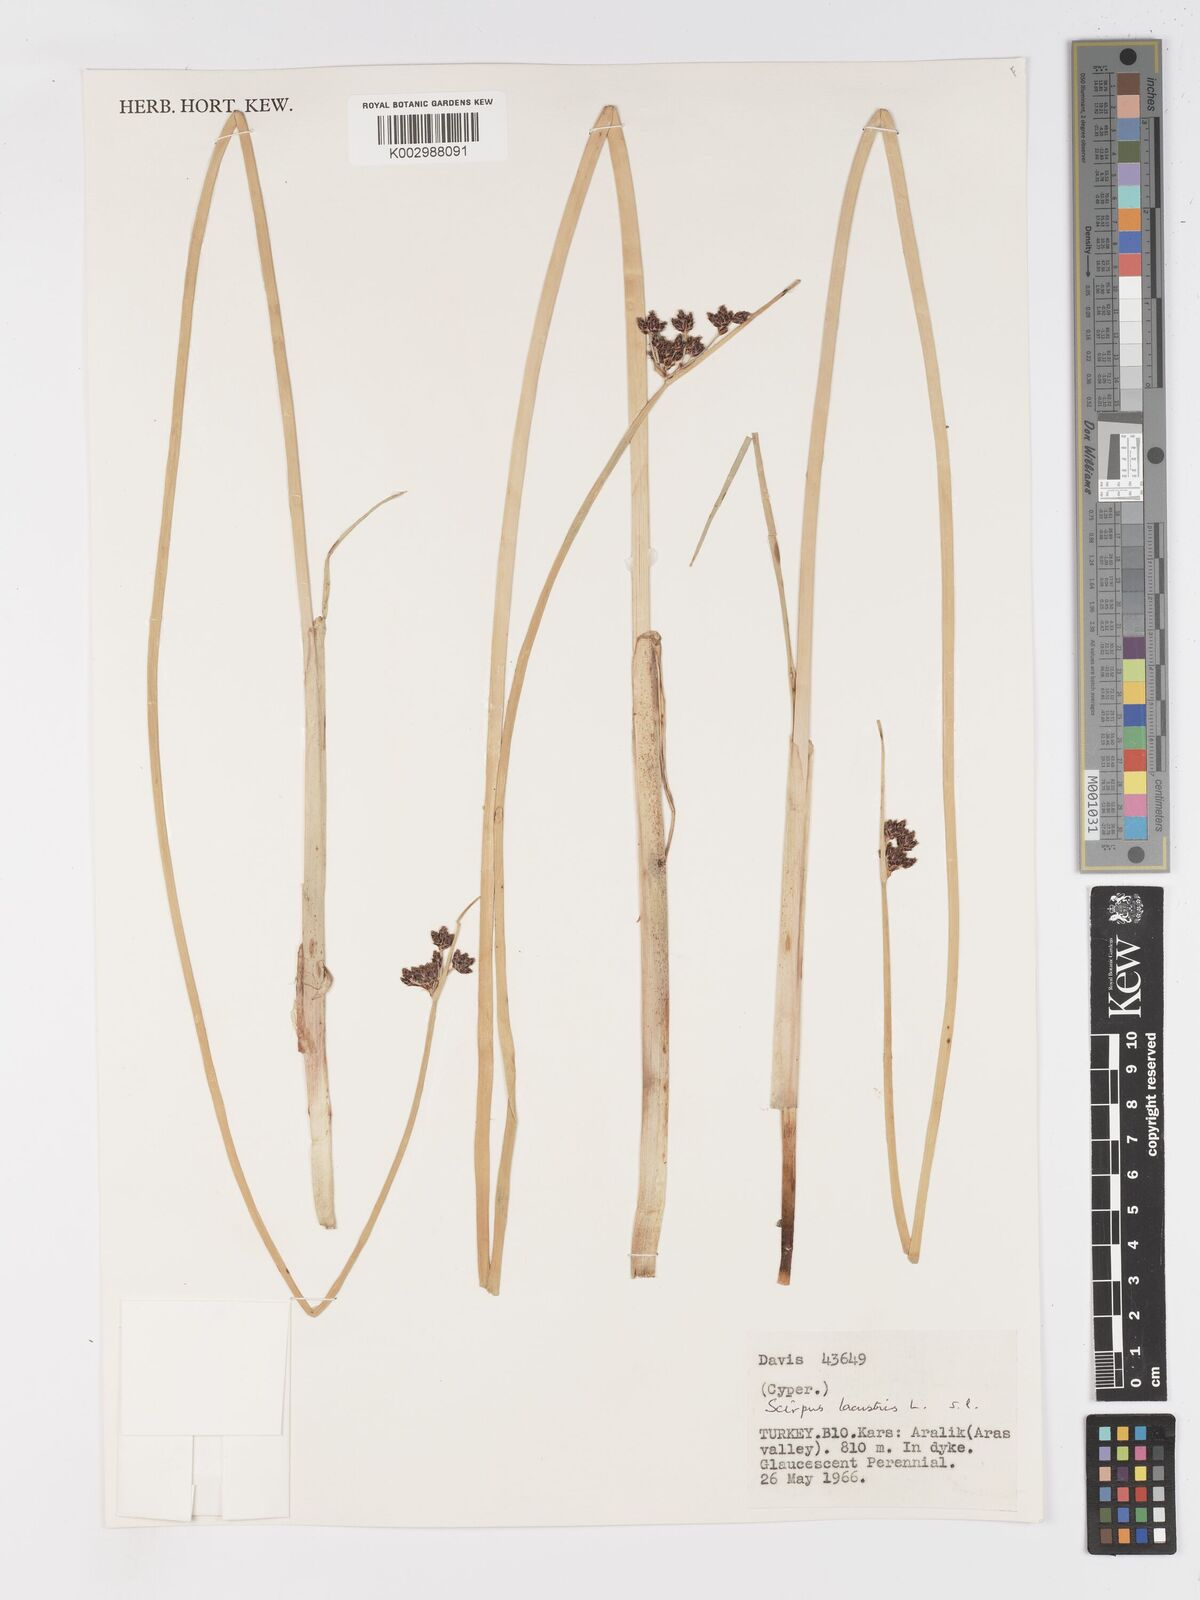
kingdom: Plantae
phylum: Tracheophyta
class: Liliopsida
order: Poales
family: Cyperaceae
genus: Schoenoplectus
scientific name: Schoenoplectus lacustris
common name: Common club-rush
